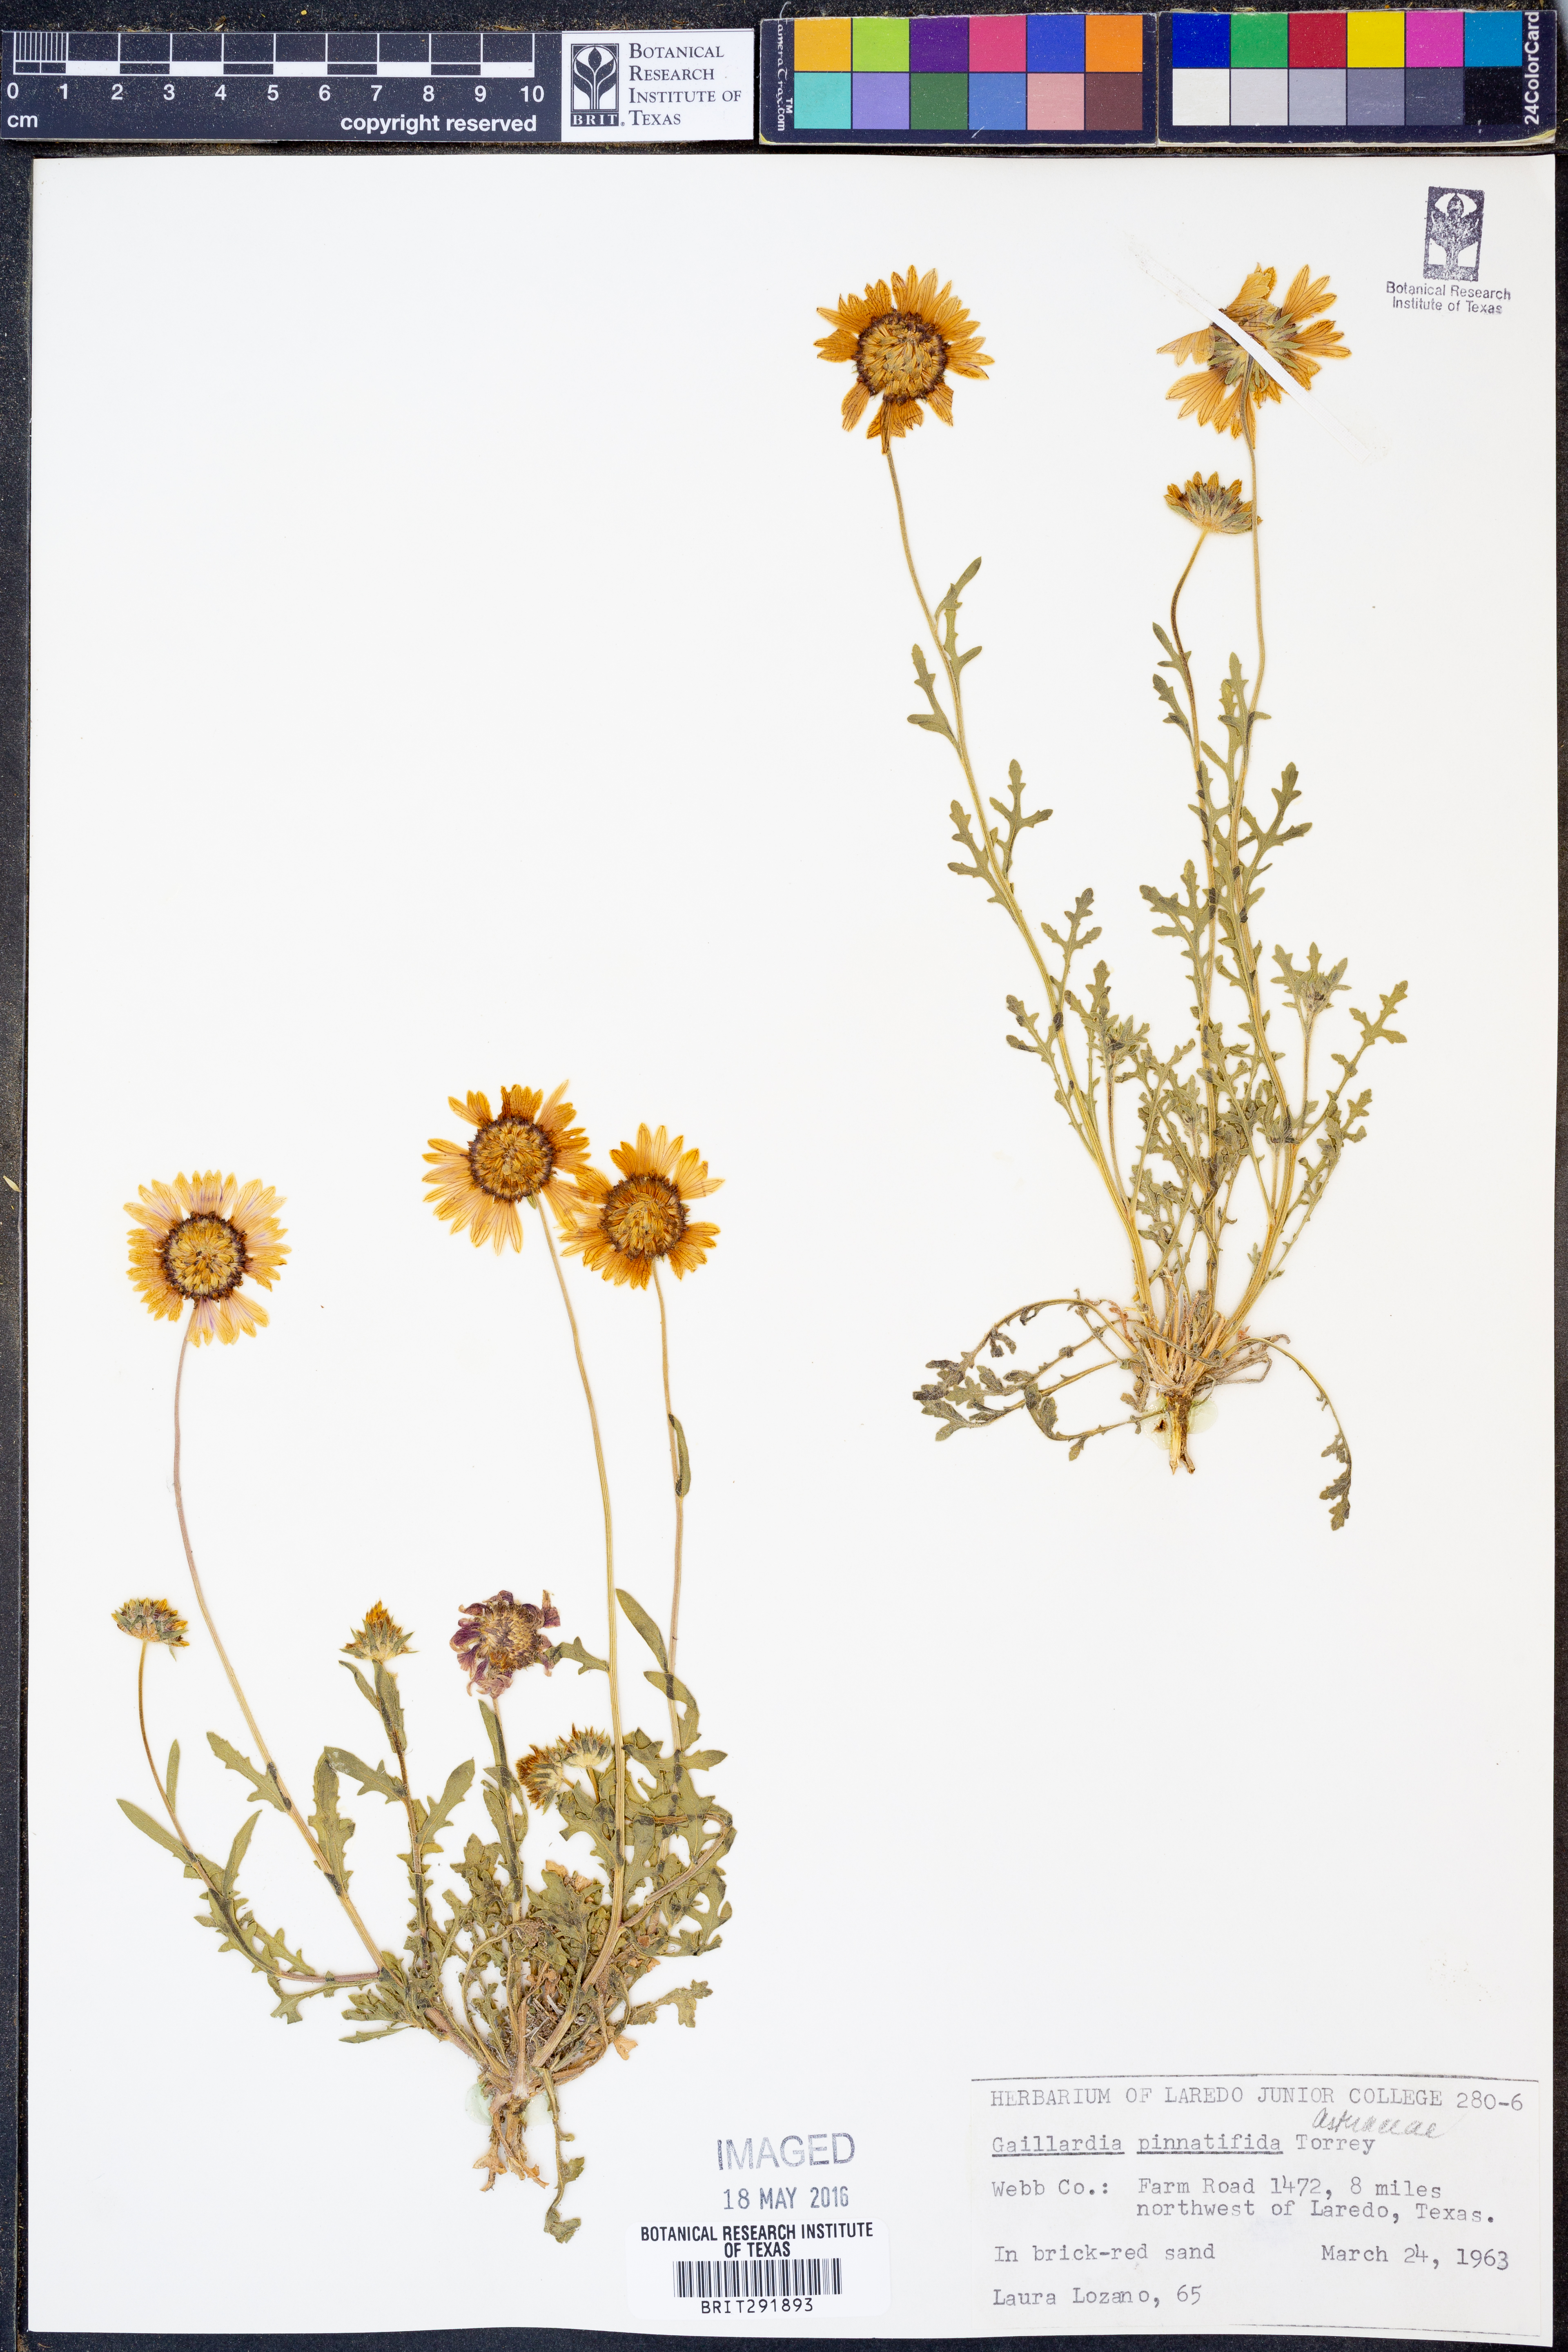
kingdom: Plantae
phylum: Tracheophyta
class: Magnoliopsida
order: Asterales
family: Asteraceae
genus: Gaillardia
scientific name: Gaillardia pinnatifida
